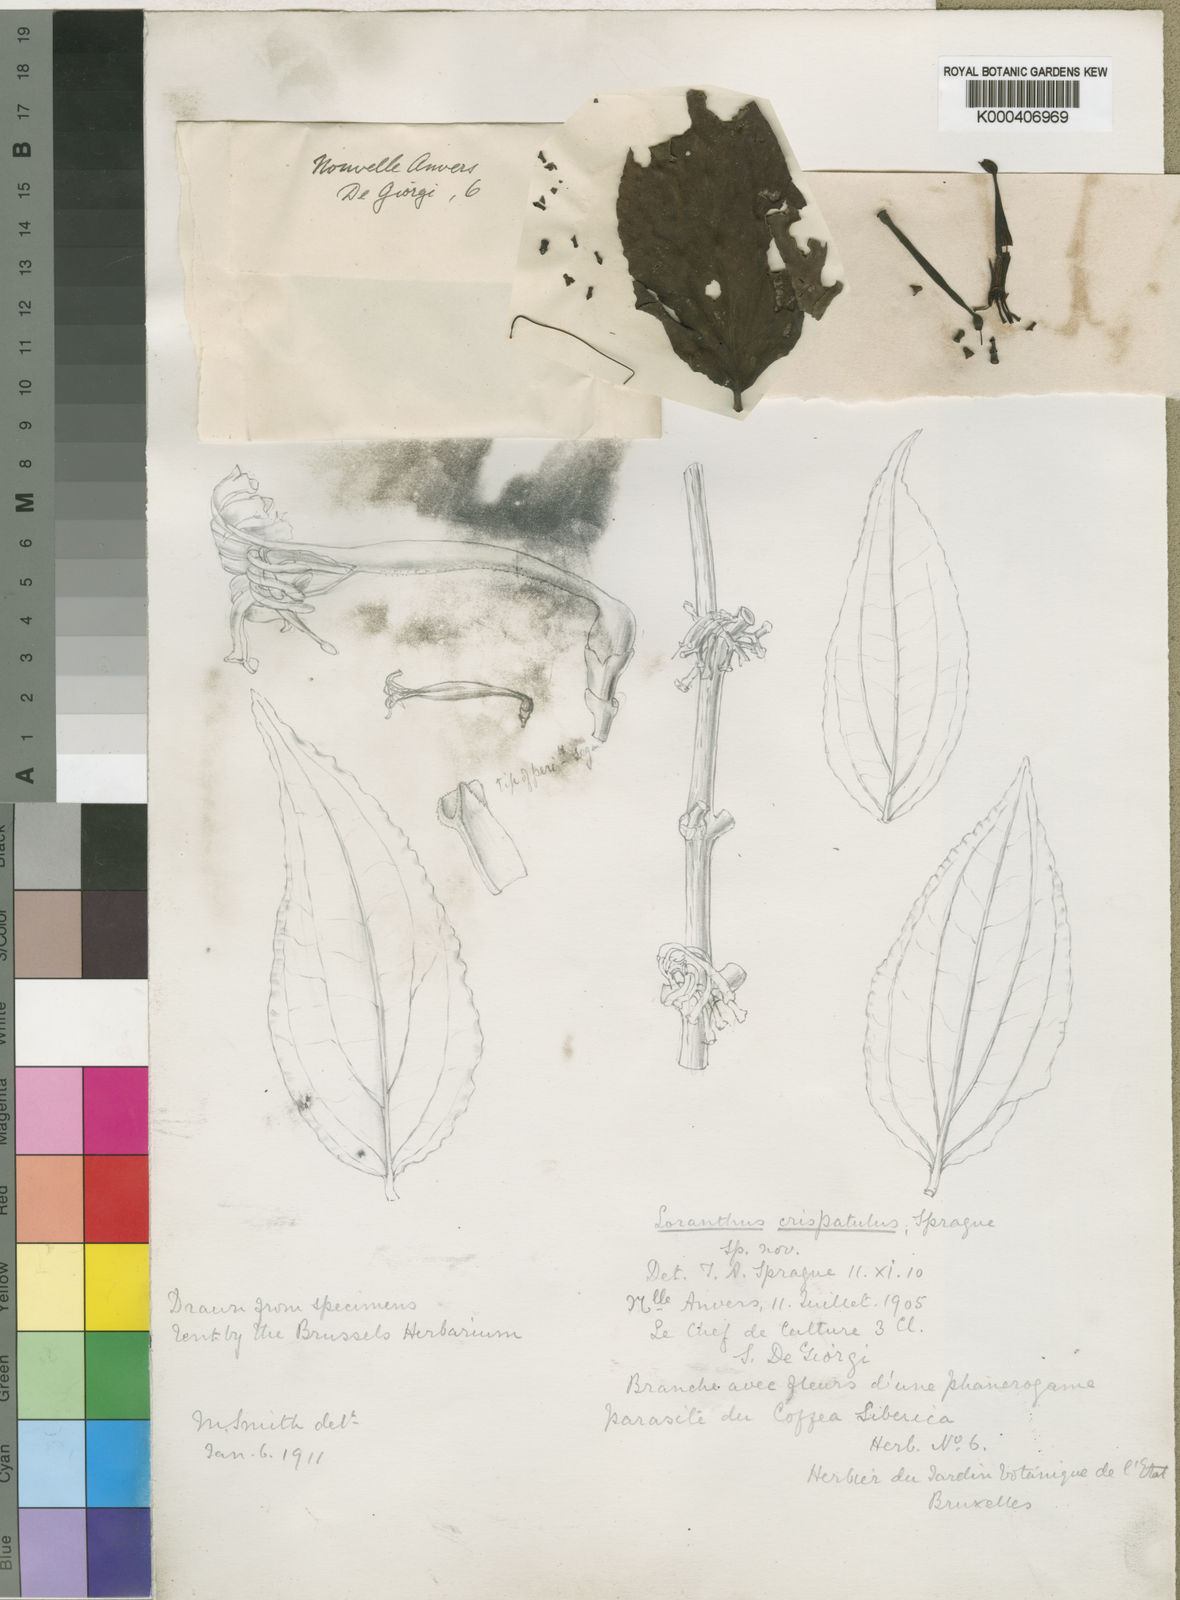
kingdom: Plantae
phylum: Tracheophyta
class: Magnoliopsida
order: Santalales
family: Loranthaceae
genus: Tapinanthus
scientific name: Tapinanthus buchneri
